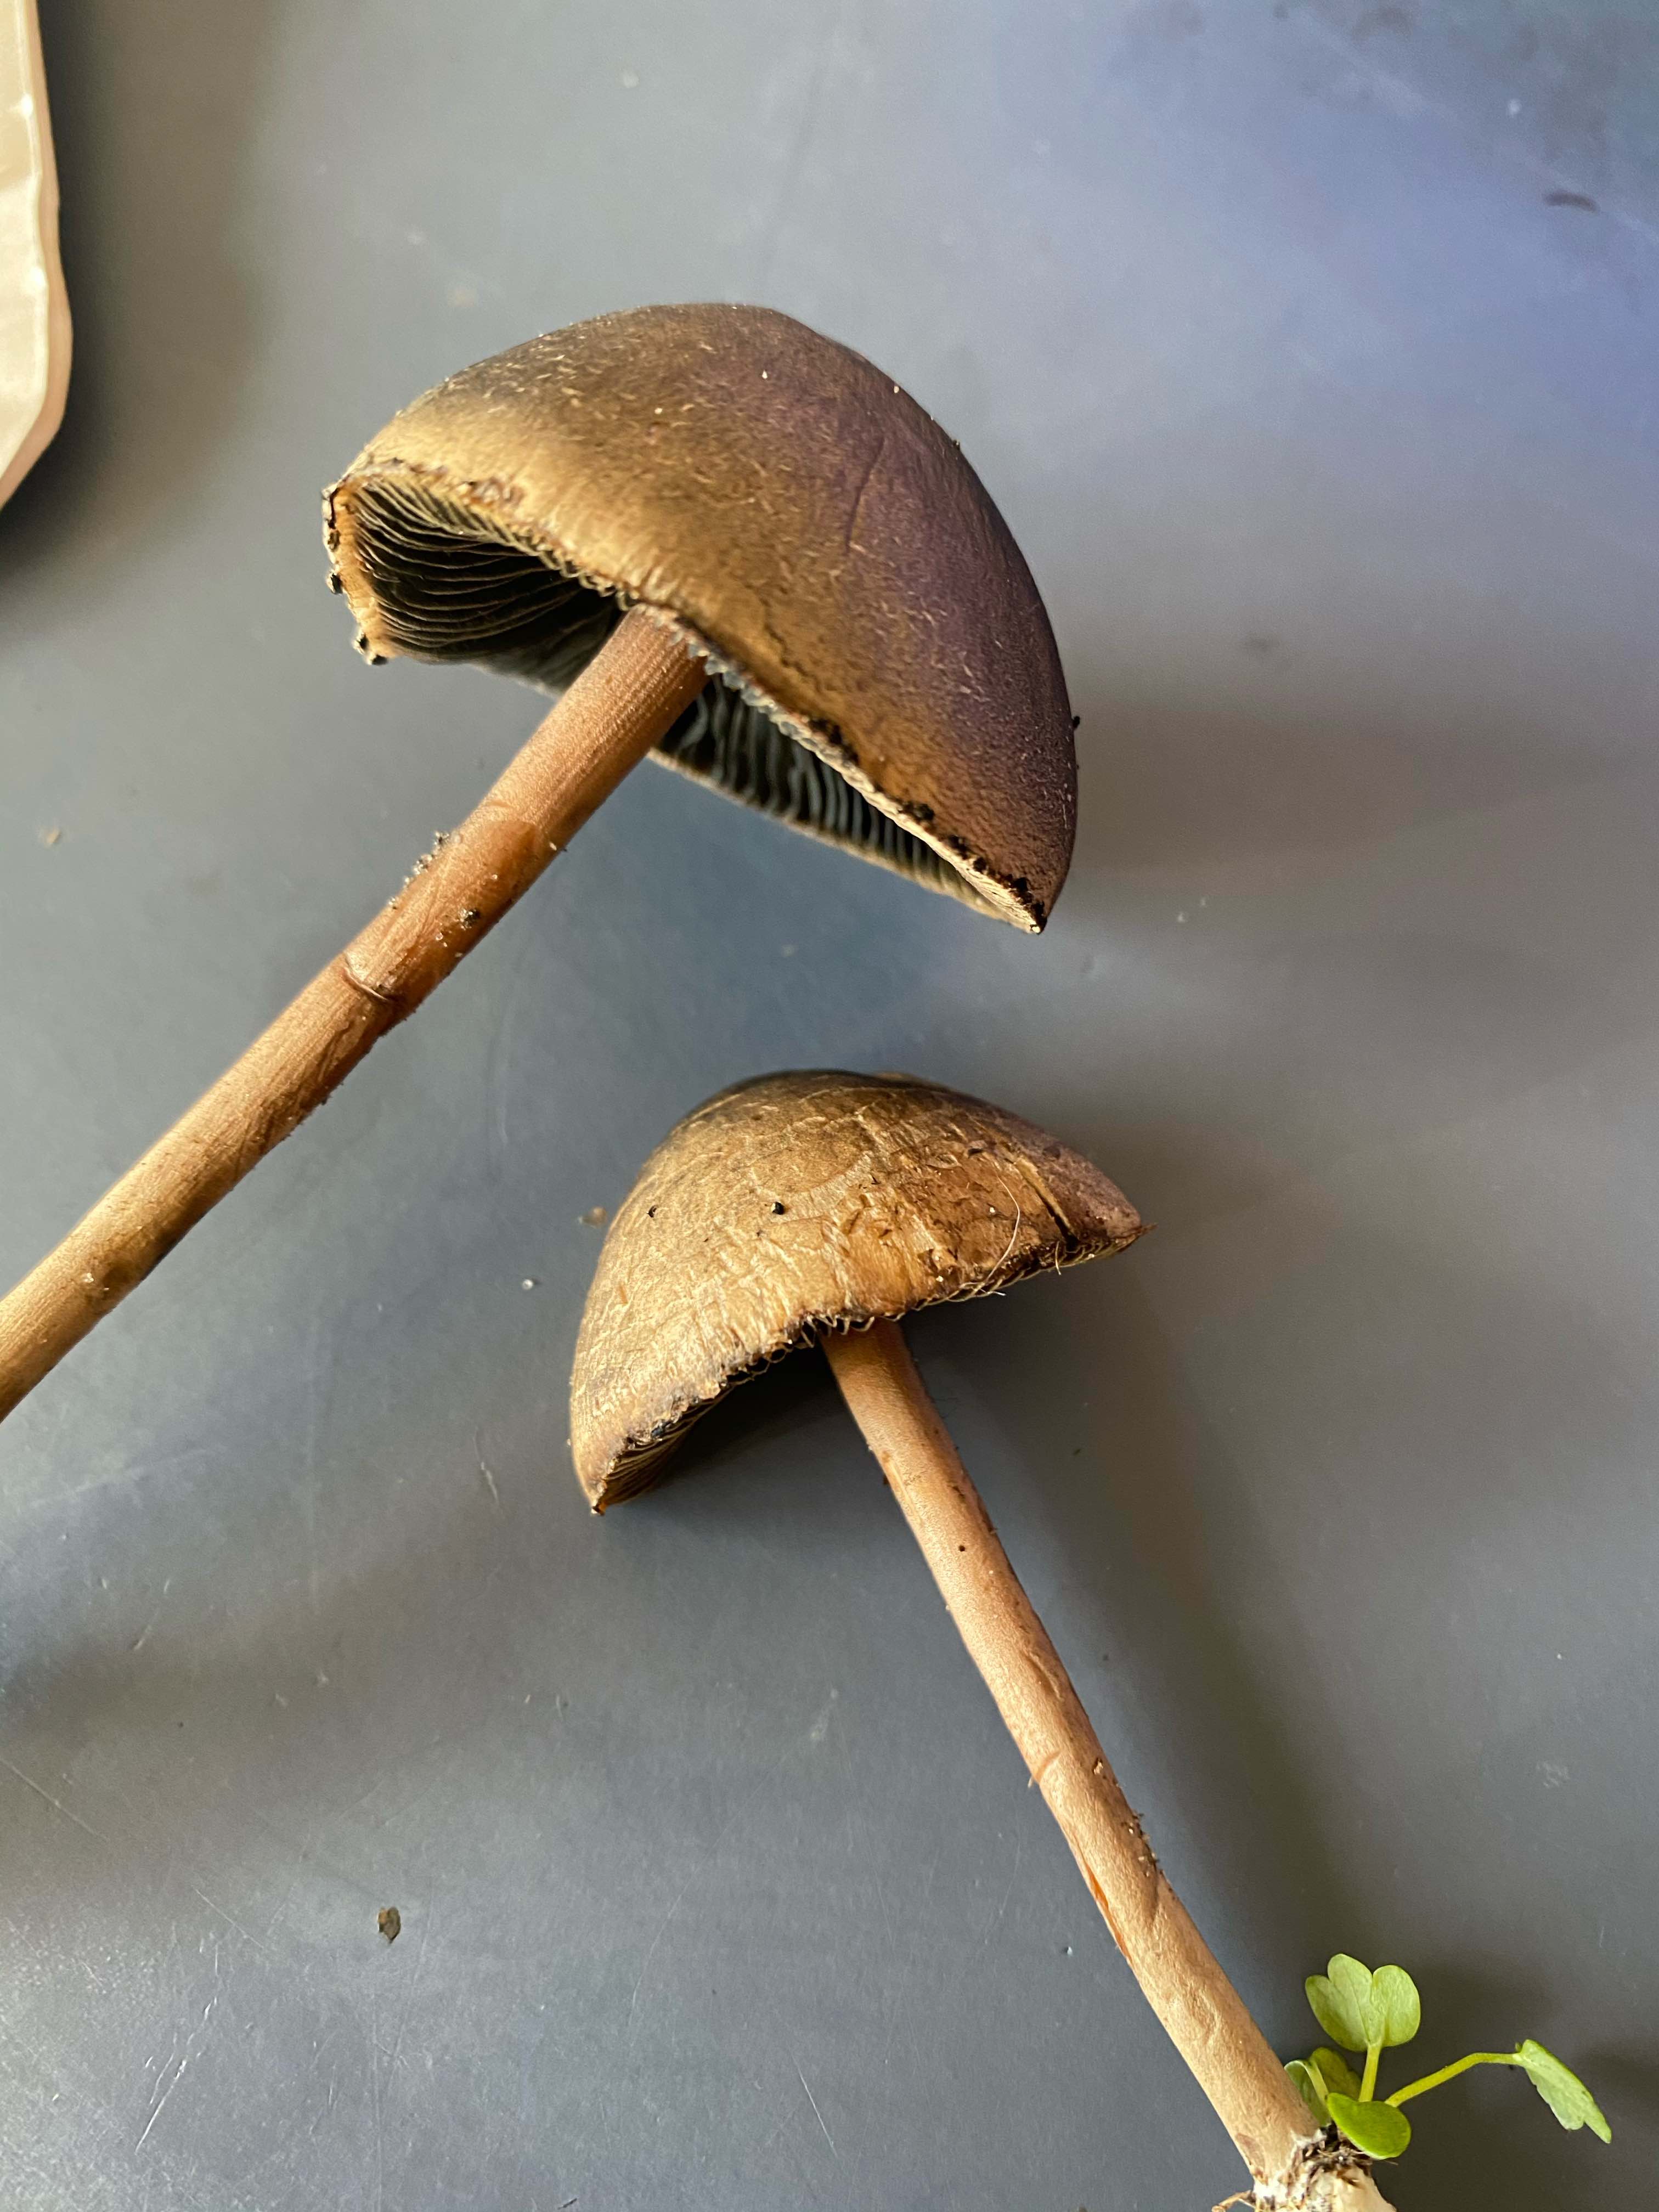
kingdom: Fungi
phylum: Basidiomycota
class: Agaricomycetes
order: Agaricales
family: Bolbitiaceae
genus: Panaeolus
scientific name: Panaeolus papilionaceus
